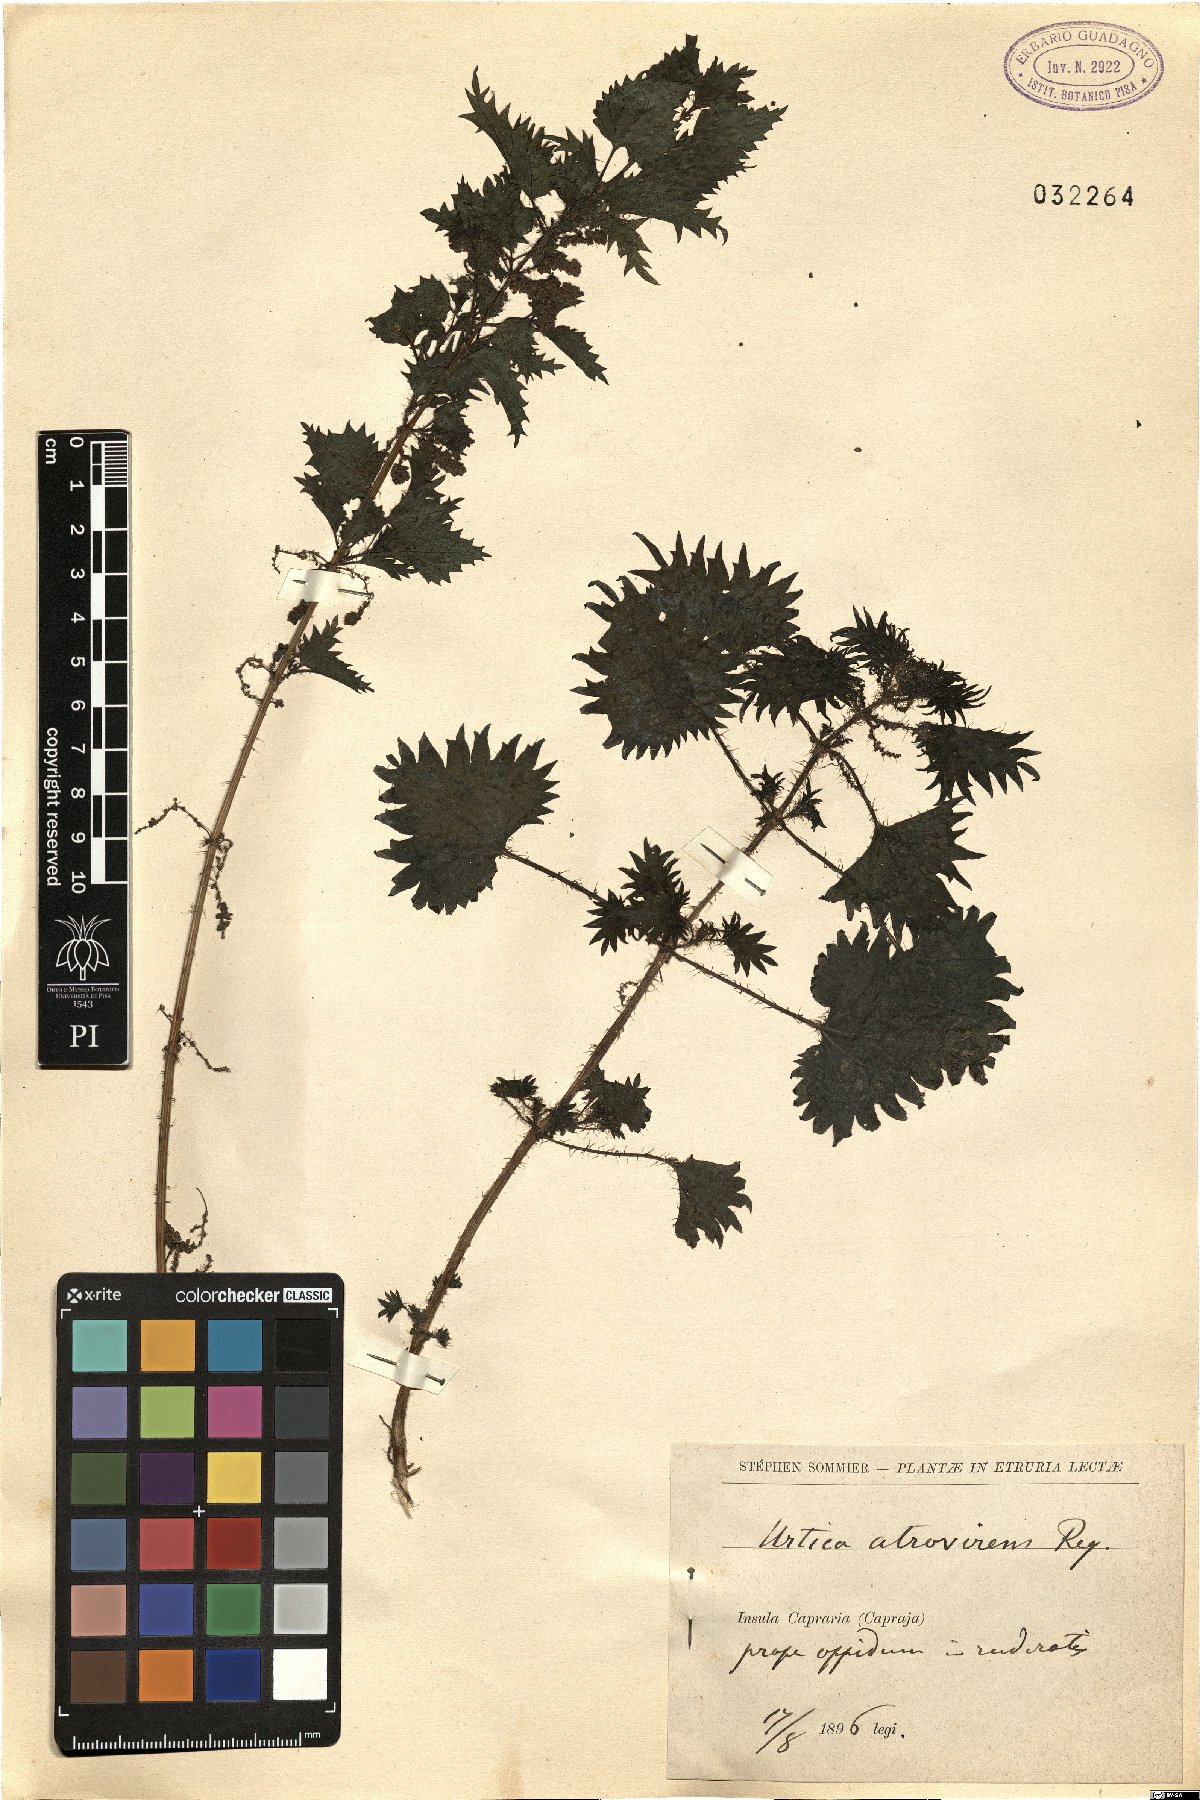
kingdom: Plantae
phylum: Tracheophyta
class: Magnoliopsida
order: Rosales
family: Urticaceae
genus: Urtica
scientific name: Urtica atrovirens
